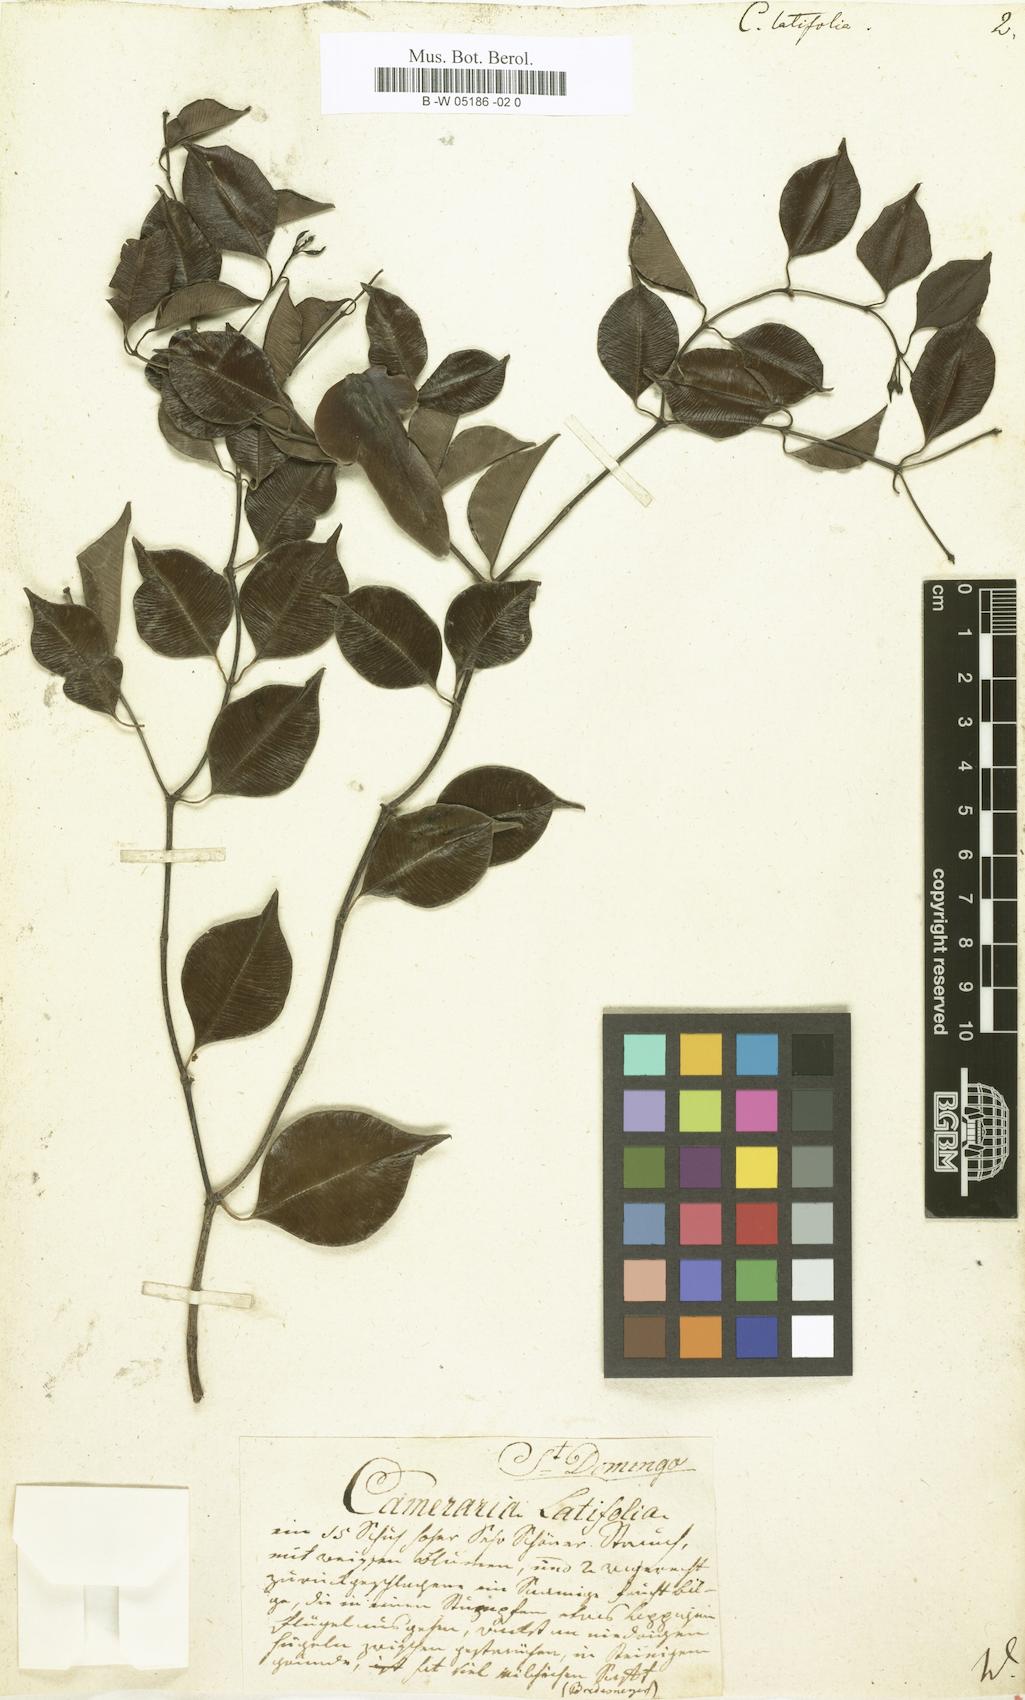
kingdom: Plantae
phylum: Tracheophyta
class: Magnoliopsida
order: Gentianales
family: Apocynaceae
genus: Cameraria
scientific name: Cameraria latifolia
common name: Savanna white poisonwood
